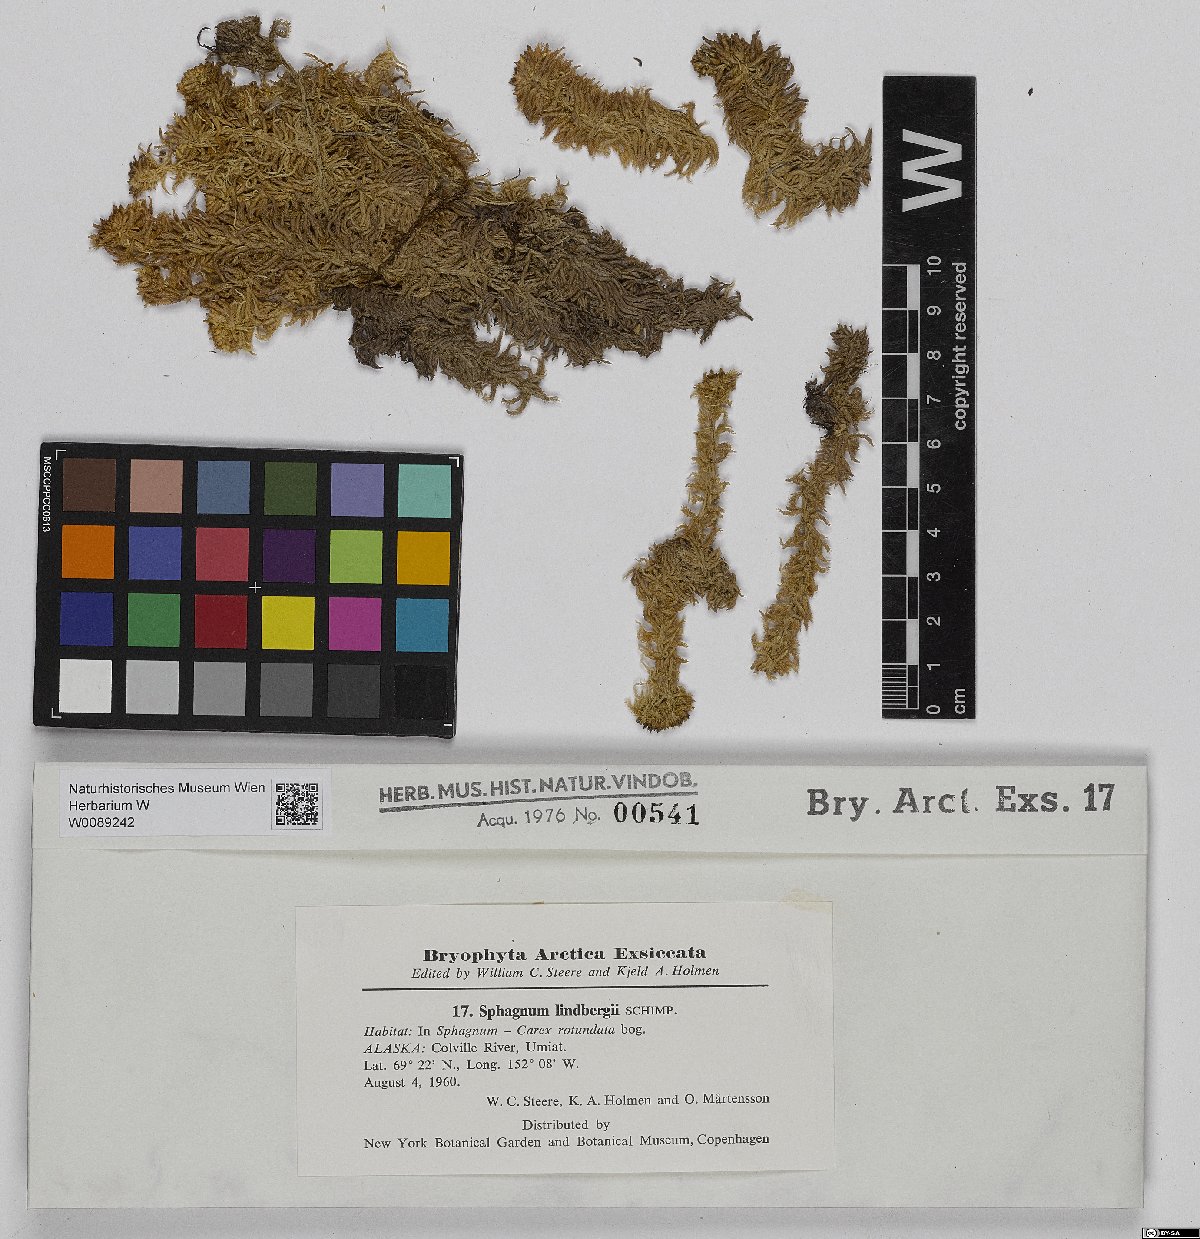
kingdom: Plantae
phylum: Bryophyta
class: Sphagnopsida
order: Sphagnales
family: Sphagnaceae
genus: Sphagnum
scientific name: Sphagnum lindbergii
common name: Lindberg's peat moss
